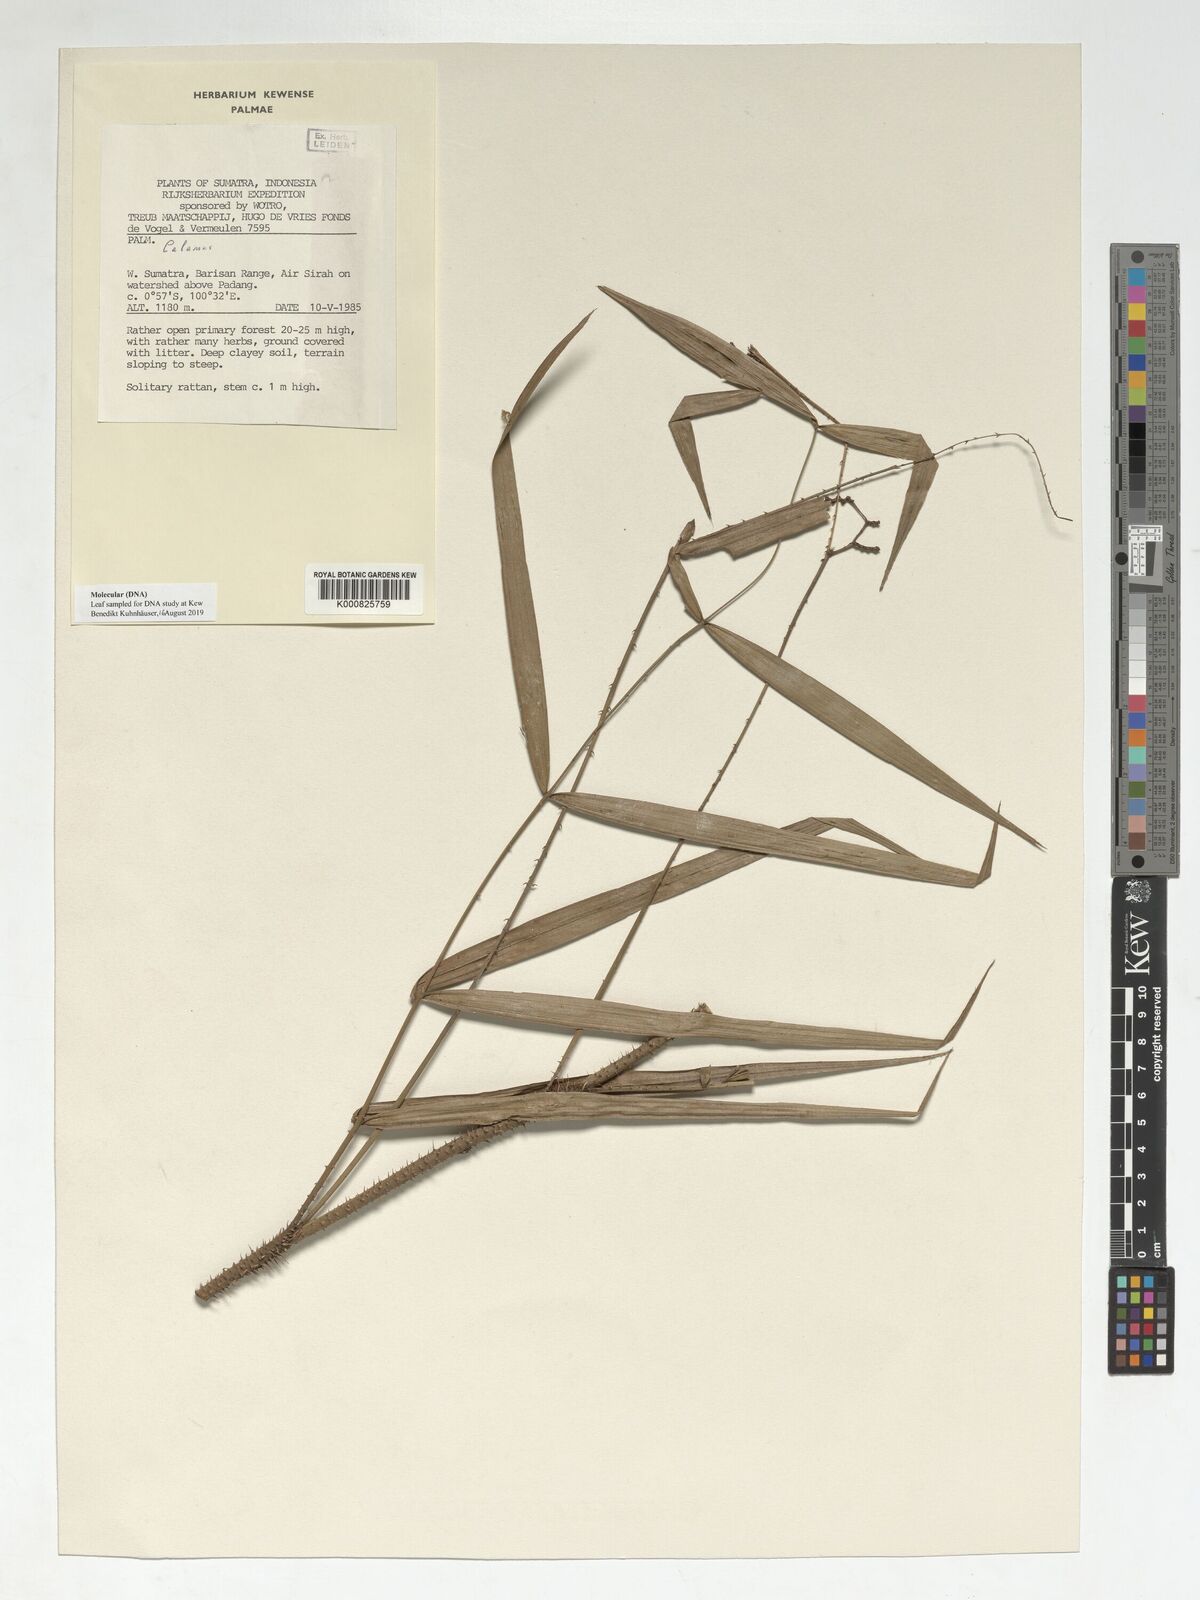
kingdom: Plantae
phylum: Tracheophyta
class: Liliopsida
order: Arecales
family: Arecaceae
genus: Calamus
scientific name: Calamus pertenuis
